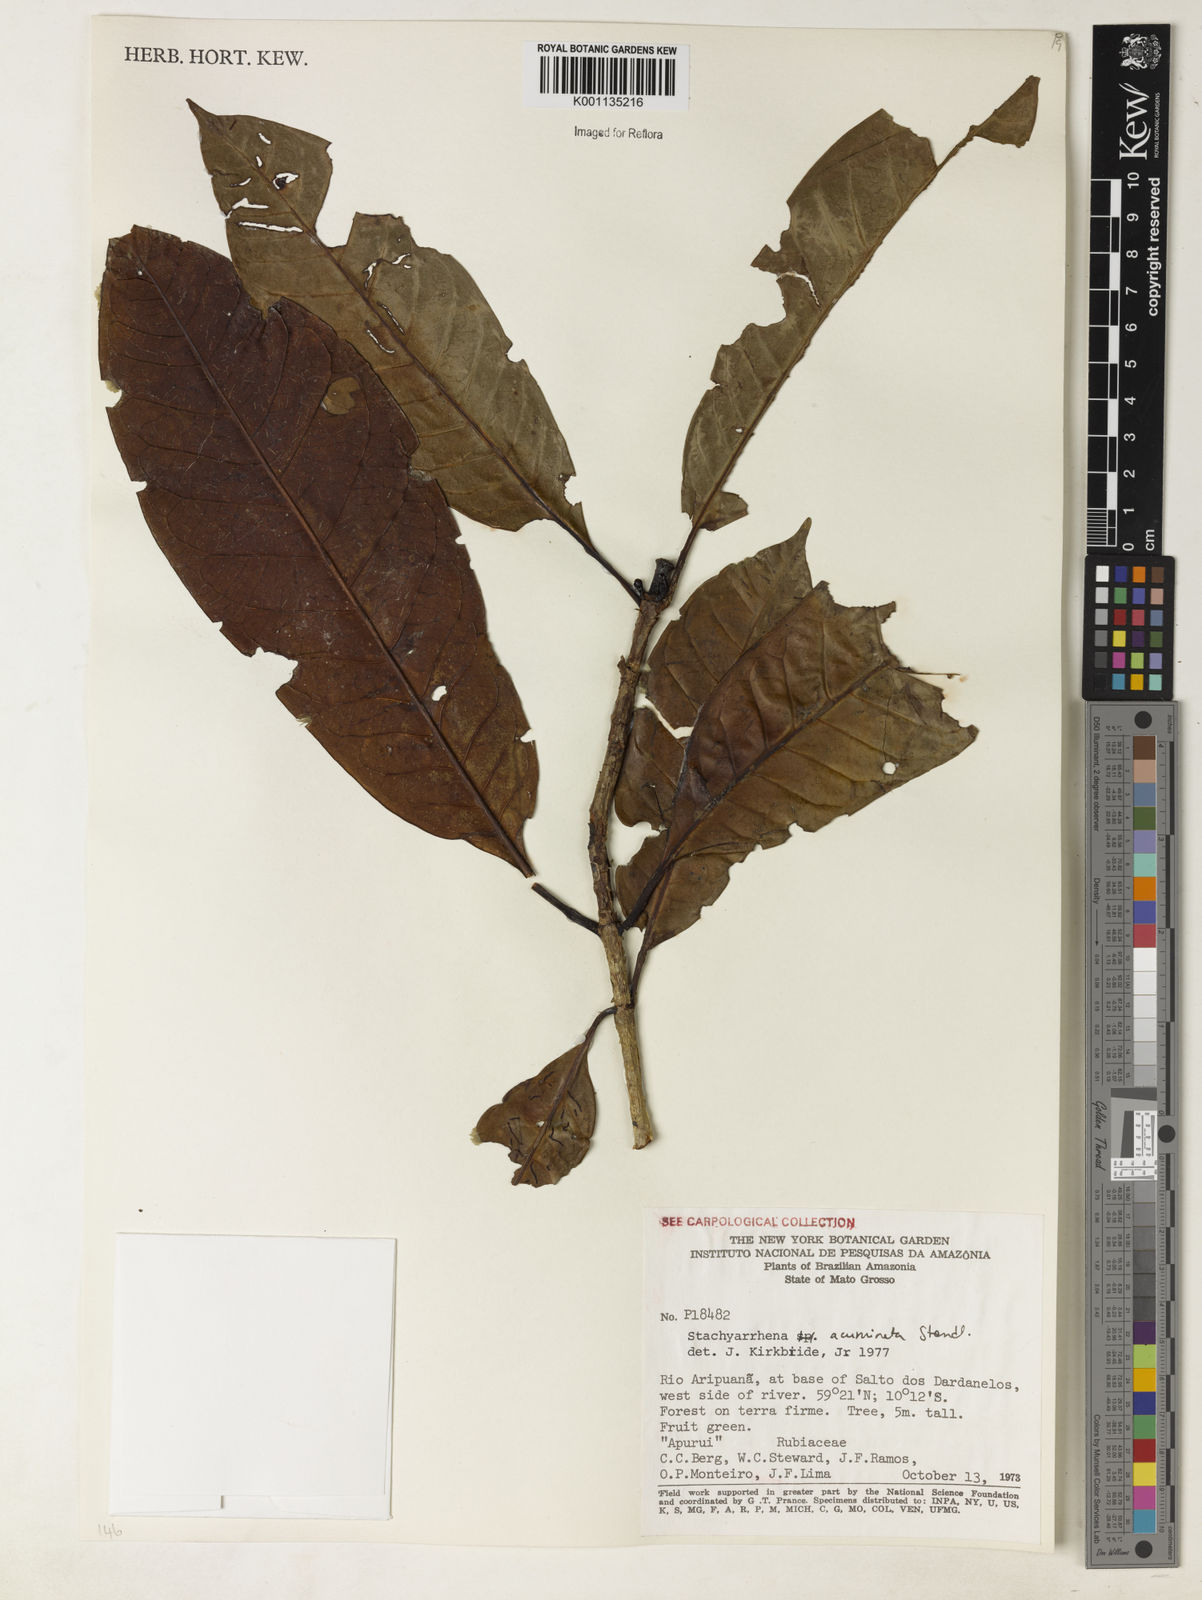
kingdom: Plantae
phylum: Tracheophyta
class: Magnoliopsida
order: Gentianales
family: Rubiaceae
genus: Stachyarrhena
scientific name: Stachyarrhena acuminata
